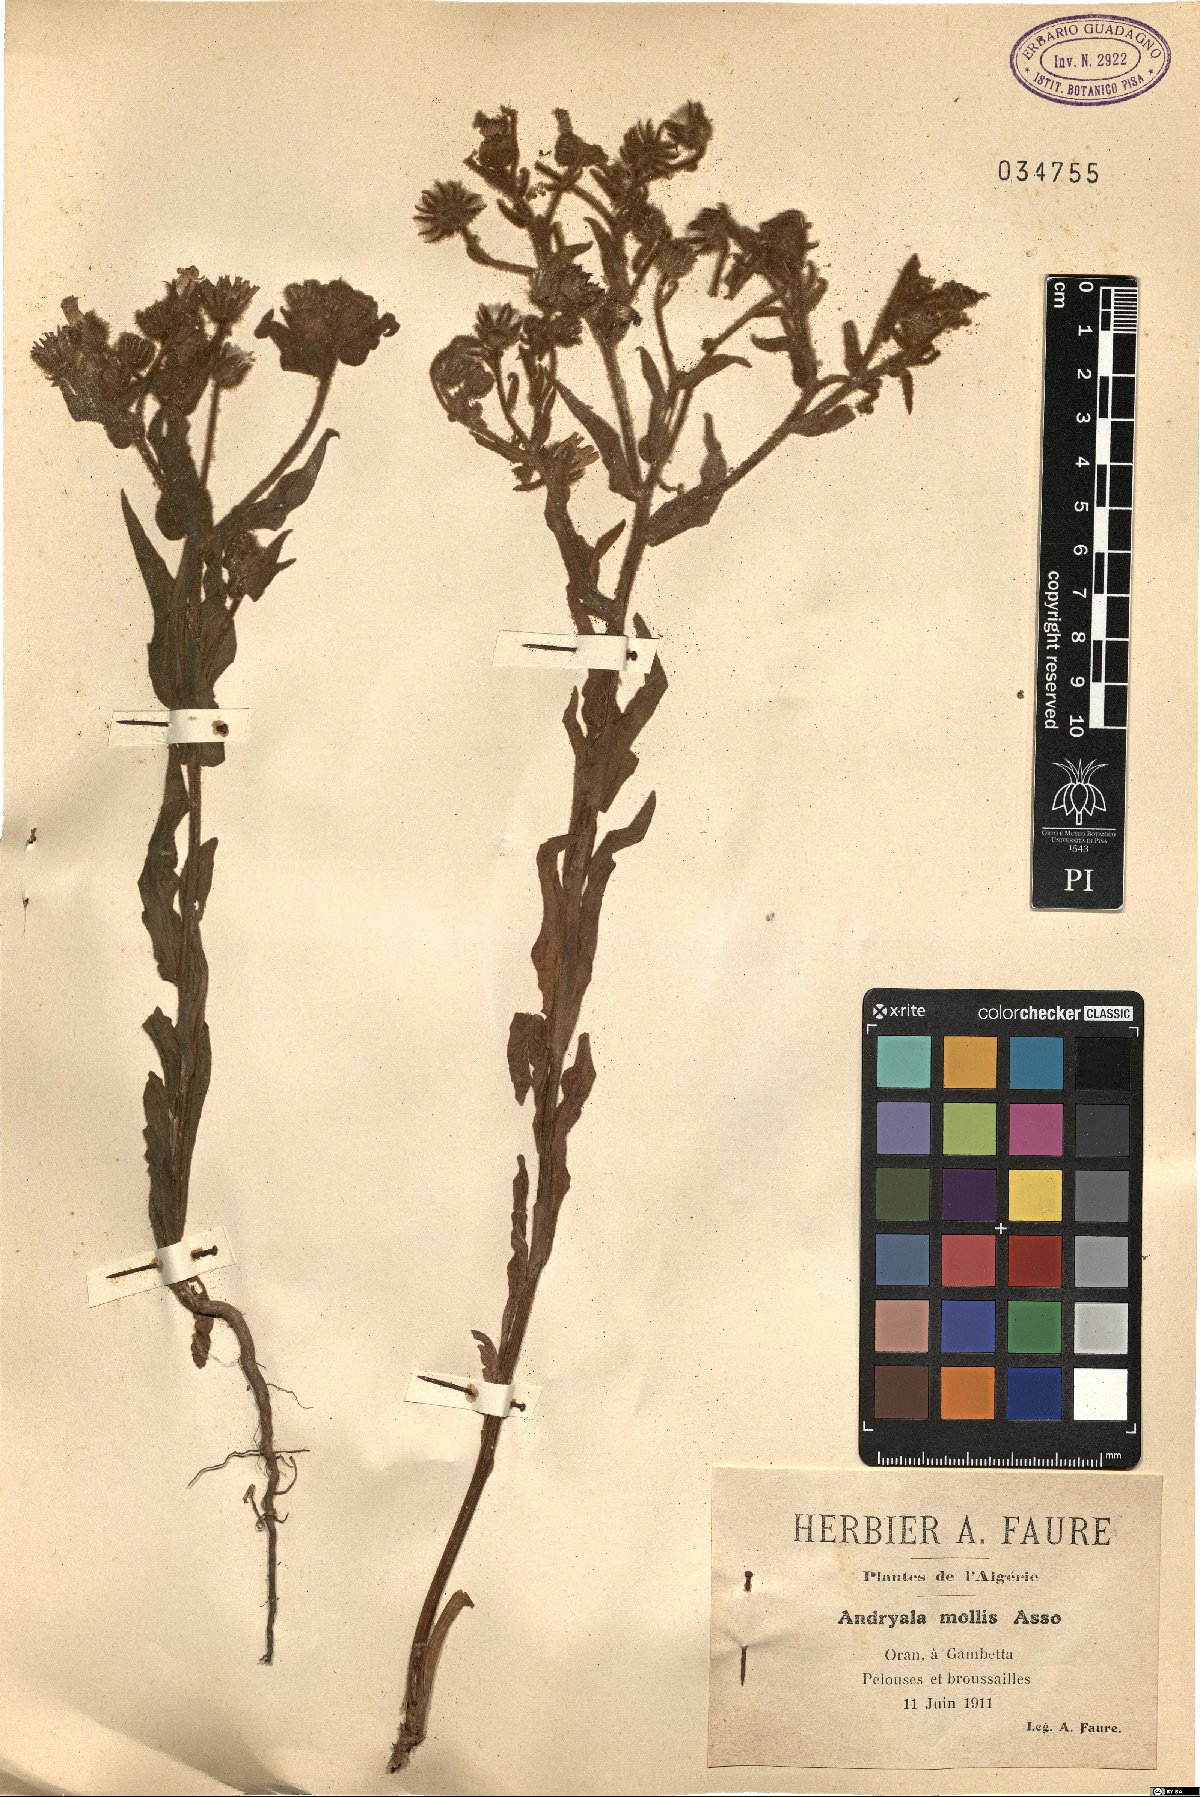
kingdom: Plantae
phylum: Tracheophyta
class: Magnoliopsida
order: Asterales
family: Asteraceae
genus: Andryala
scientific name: Andryala integrifolia
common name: Common andryala
